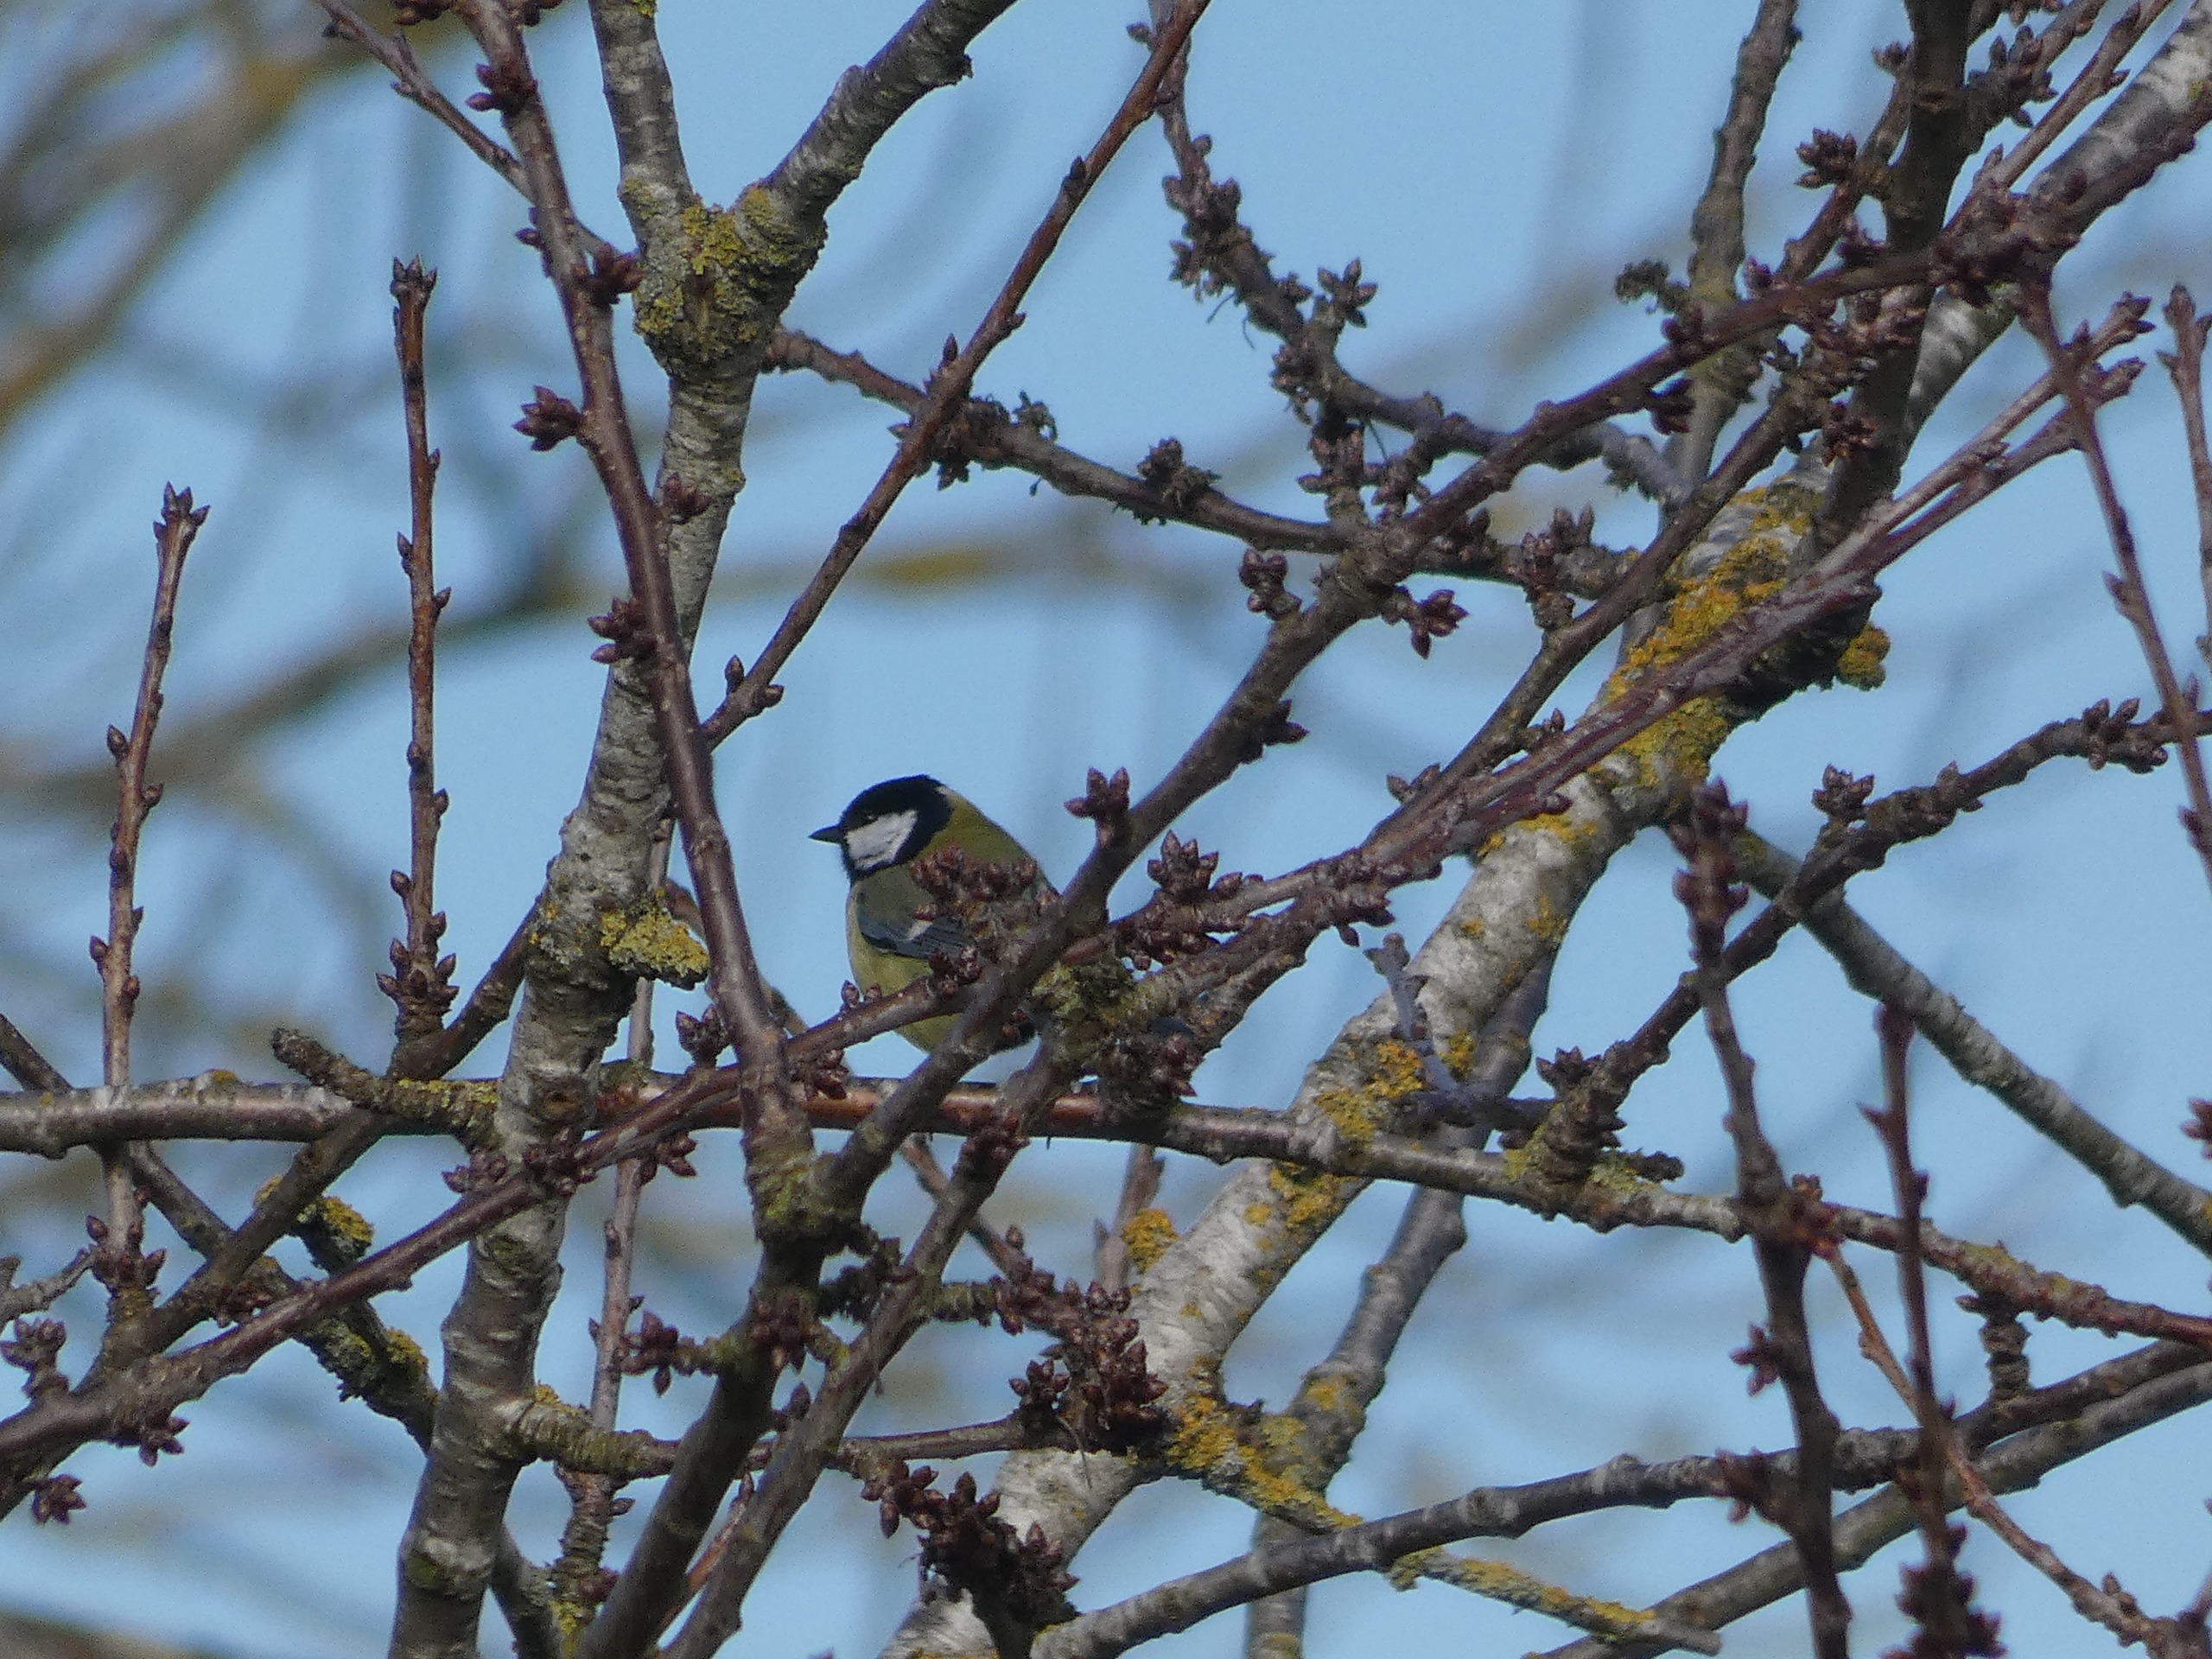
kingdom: Animalia
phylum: Chordata
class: Aves
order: Passeriformes
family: Paridae
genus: Parus
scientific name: Parus major
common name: Musvit
